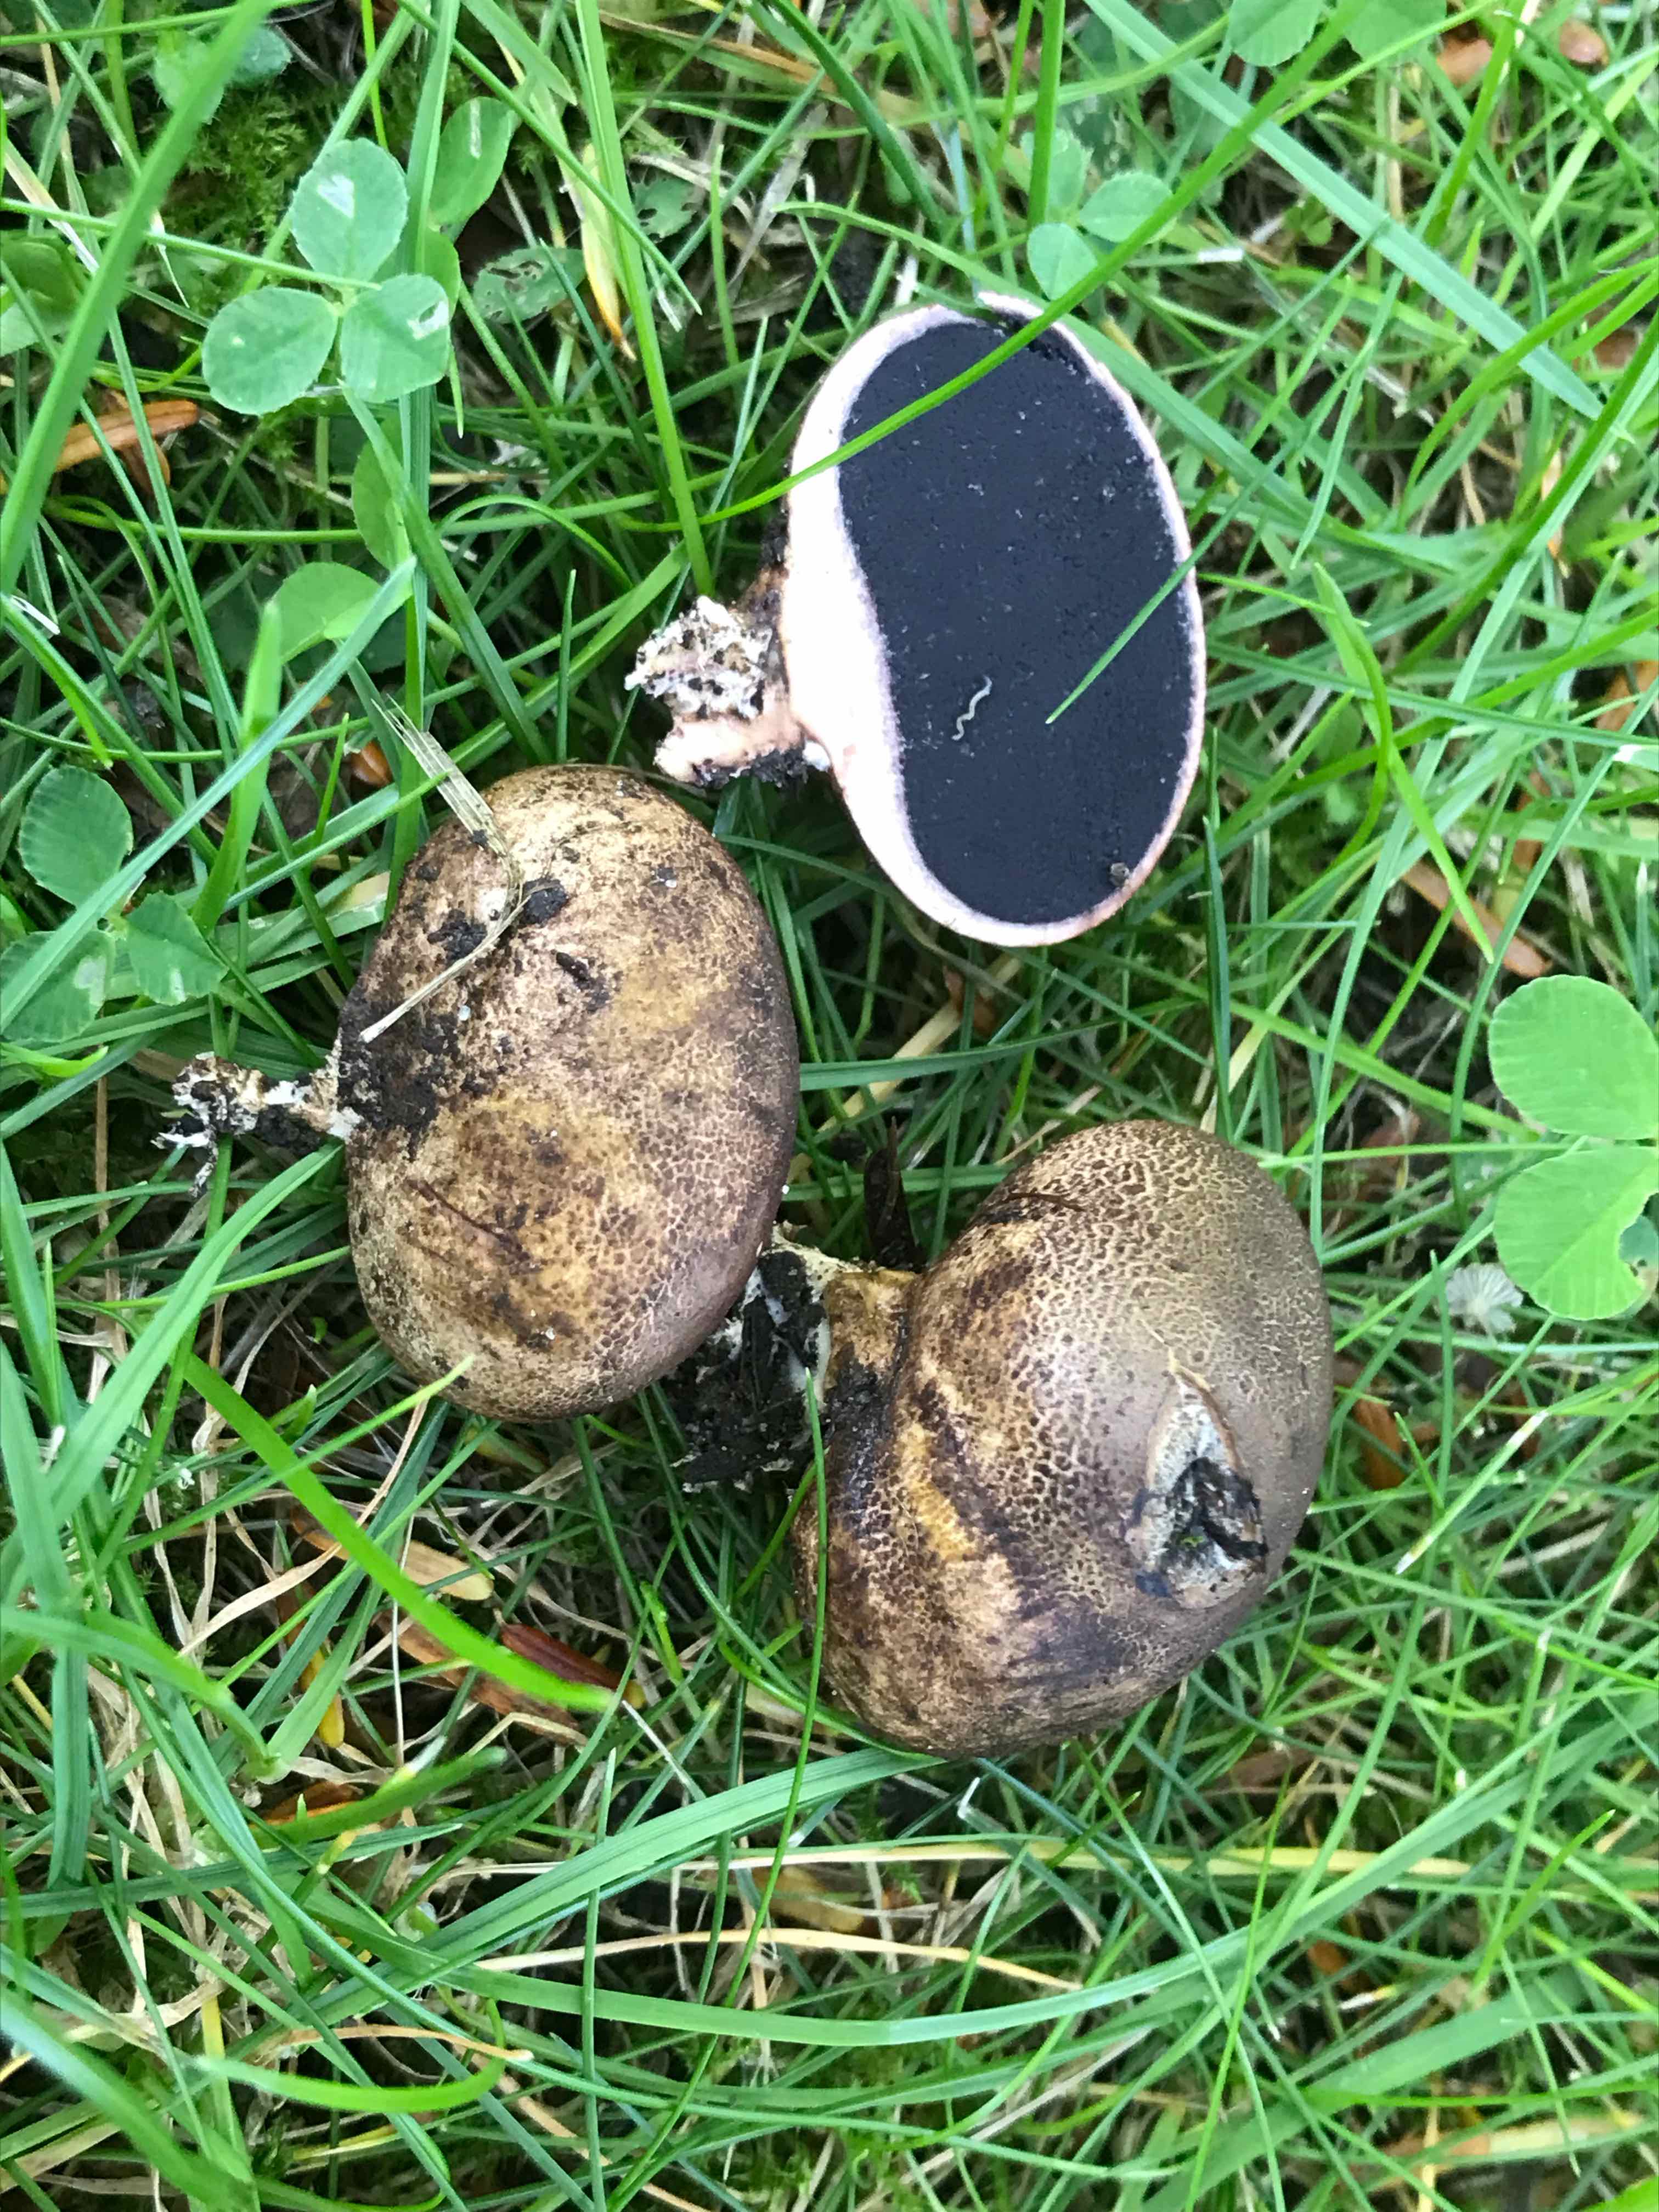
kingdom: Fungi
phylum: Basidiomycota
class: Agaricomycetes
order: Boletales
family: Sclerodermataceae
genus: Scleroderma
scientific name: Scleroderma areolatum
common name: plettet bruskbold
